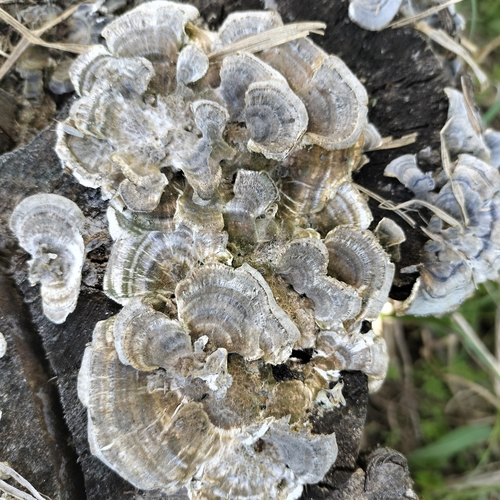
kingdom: Fungi
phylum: Basidiomycota
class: Agaricomycetes
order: Polyporales
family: Polyporaceae
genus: Trametes
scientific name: Trametes versicolor
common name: Turkeytail
